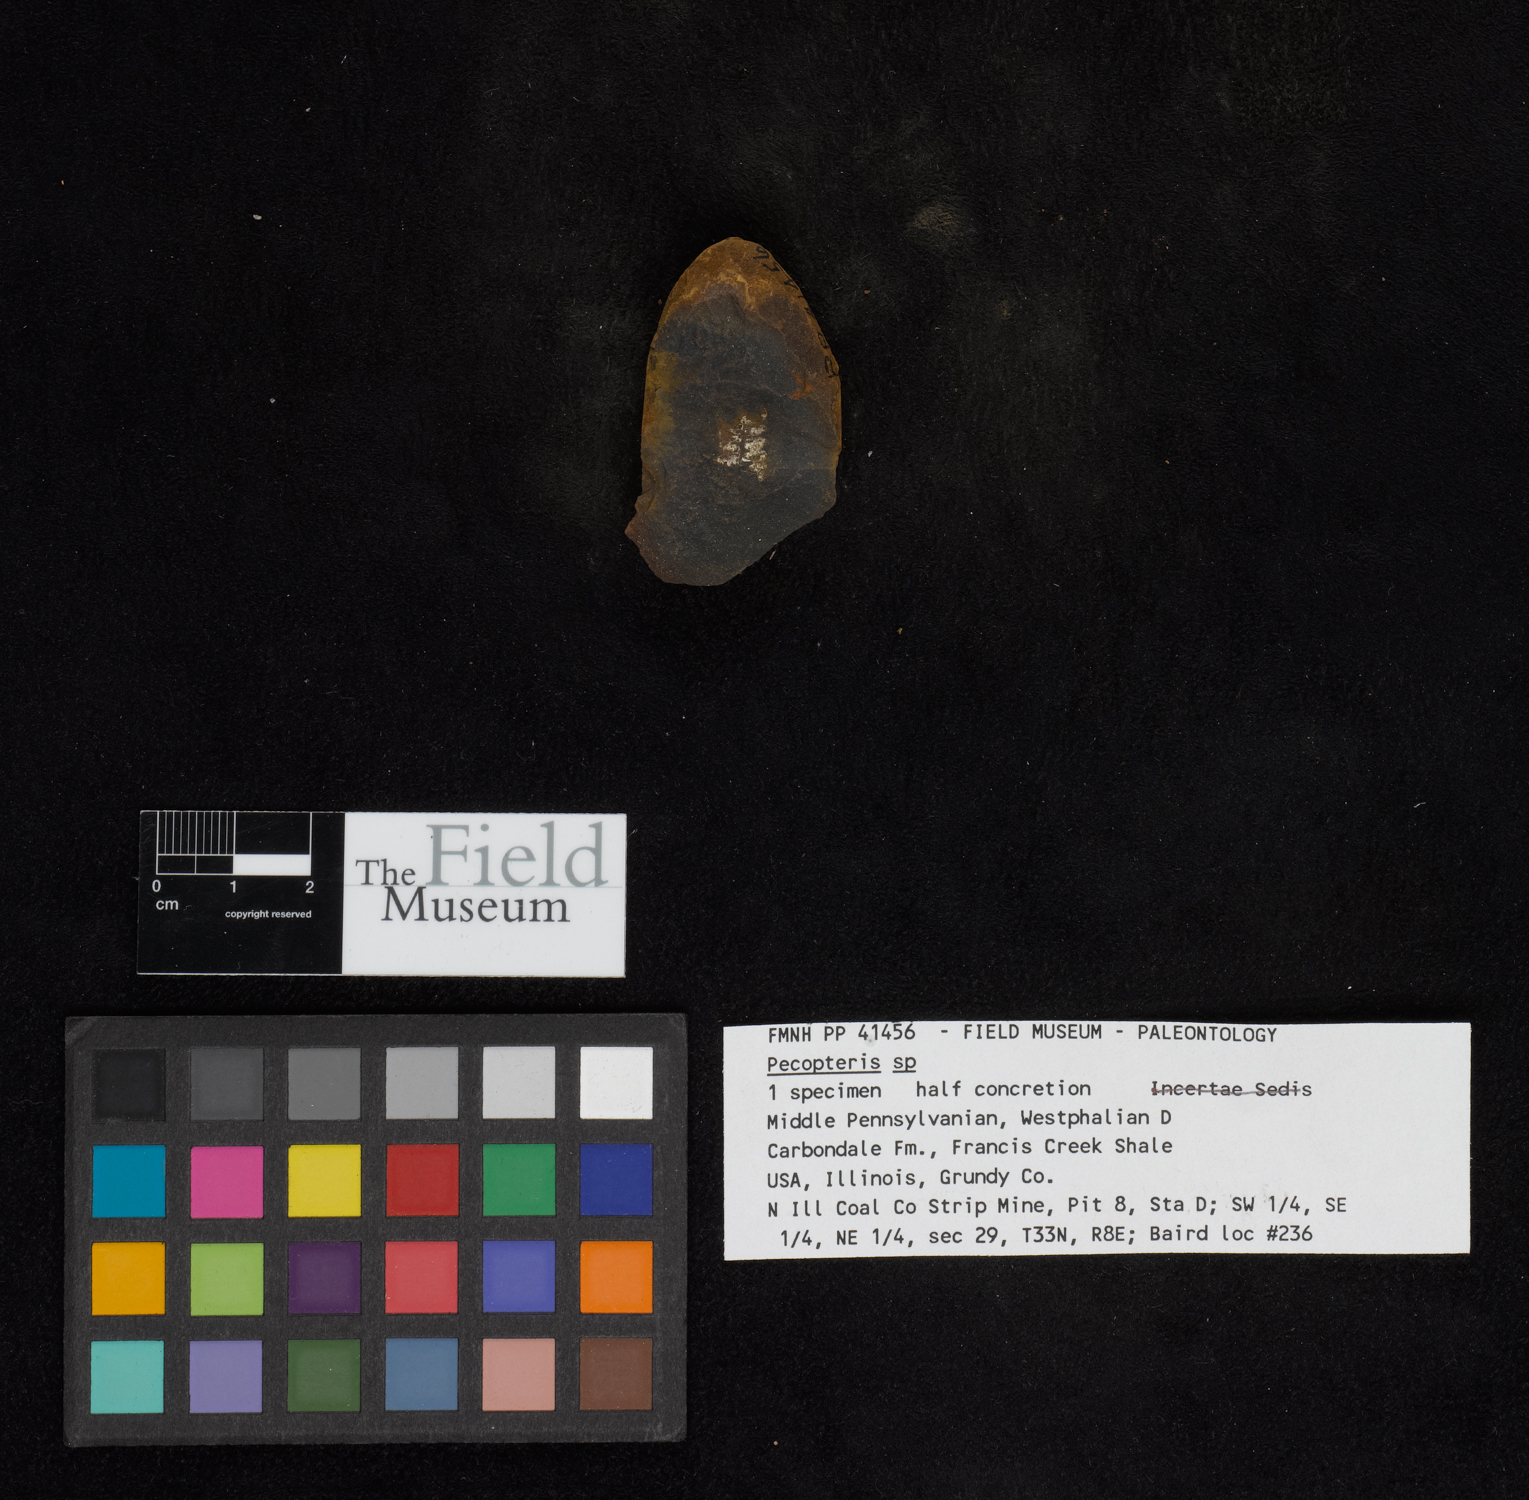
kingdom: Plantae
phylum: Tracheophyta
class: Polypodiopsida
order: Marattiales
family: Asterothecaceae
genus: Pecopteris
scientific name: Pecopteris
